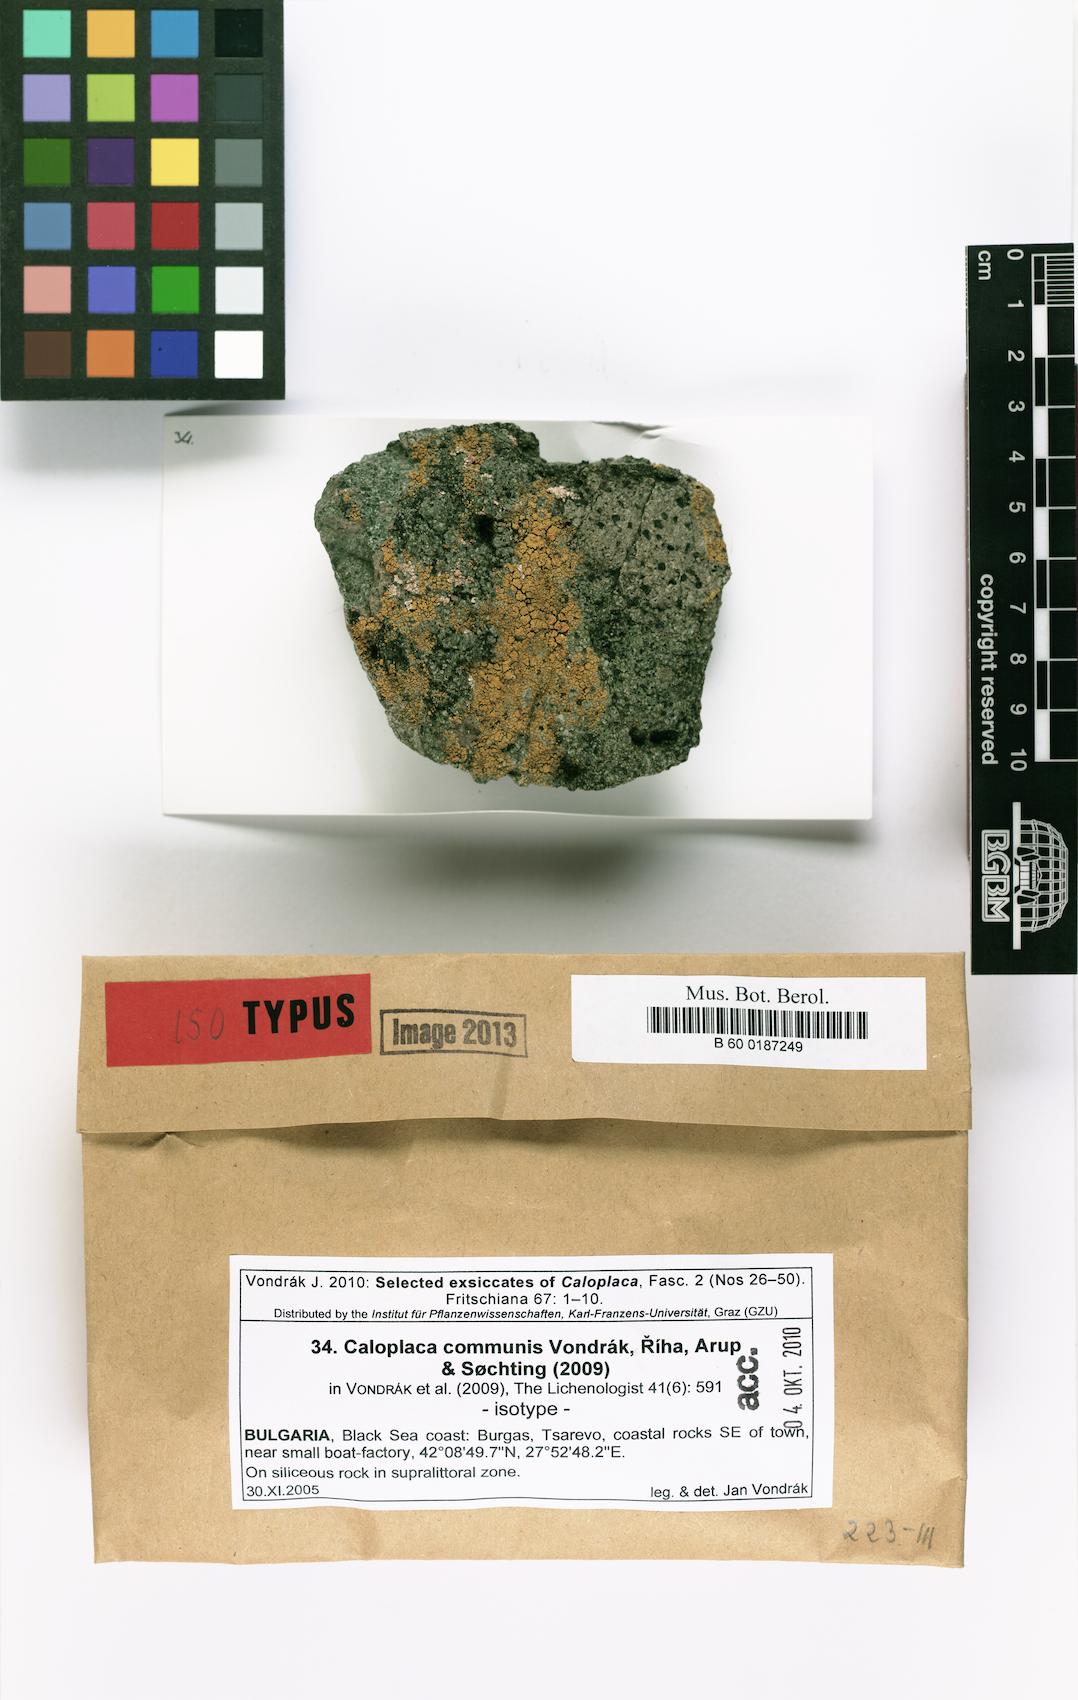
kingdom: Fungi
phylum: Ascomycota
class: Lecanoromycetes
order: Teloschistales
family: Teloschistaceae
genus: Flavoplaca
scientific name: Flavoplaca communis
